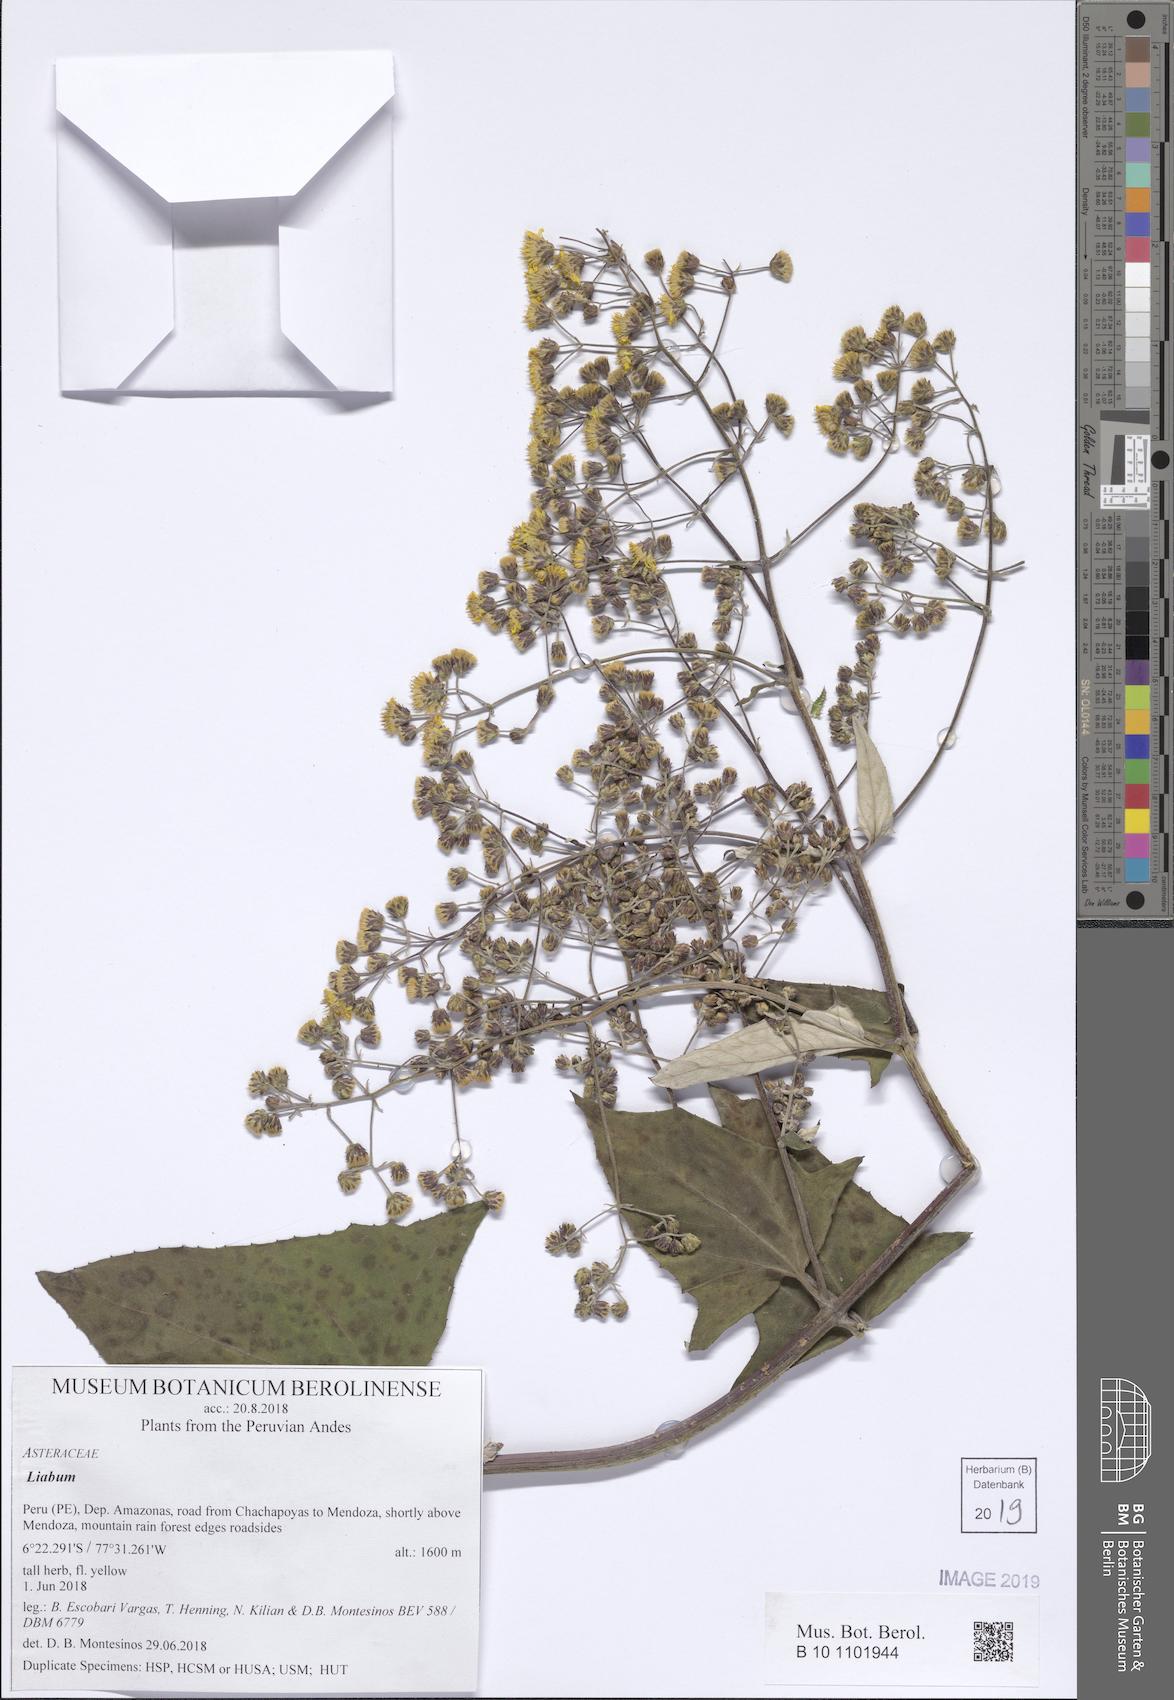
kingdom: Plantae
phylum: Tracheophyta
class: Magnoliopsida
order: Asterales
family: Asteraceae
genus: Munnozia
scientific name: Munnozia hastifolia
